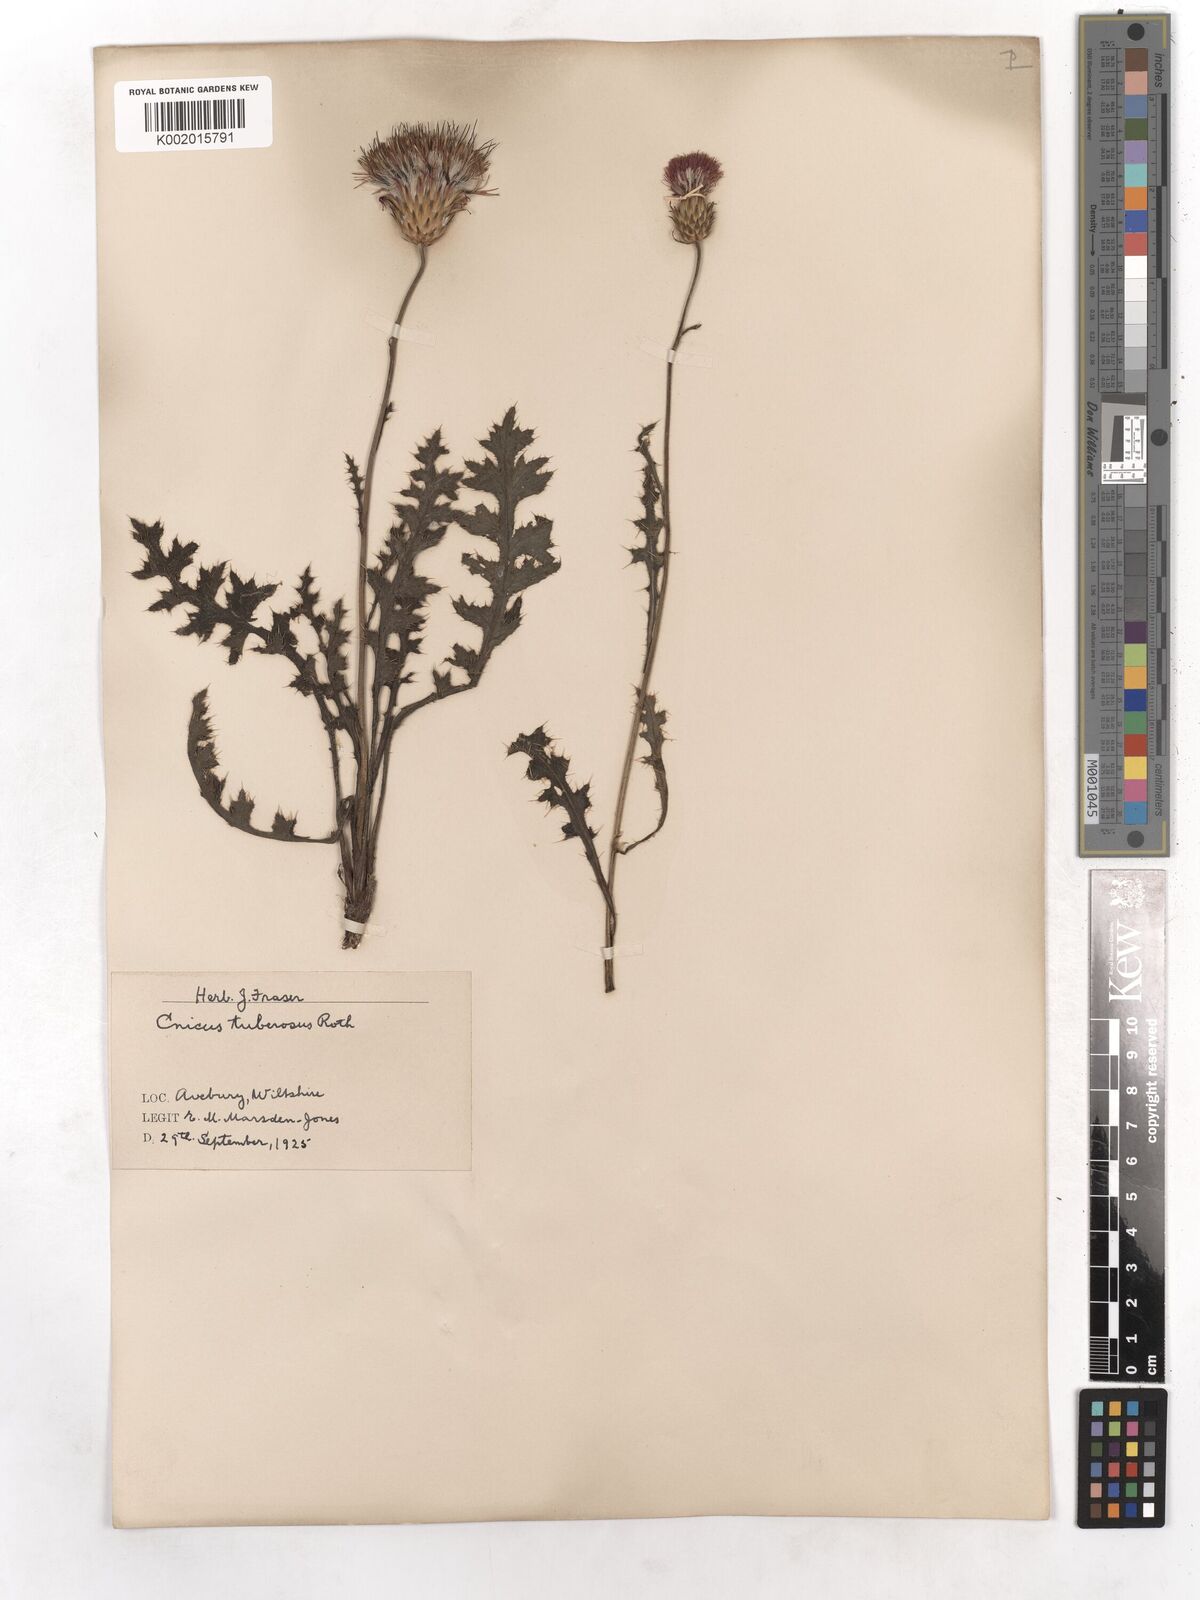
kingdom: Plantae
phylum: Tracheophyta
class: Magnoliopsida
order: Asterales
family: Asteraceae
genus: Cirsium
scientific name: Cirsium tuberosum
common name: Tuberous thistle
